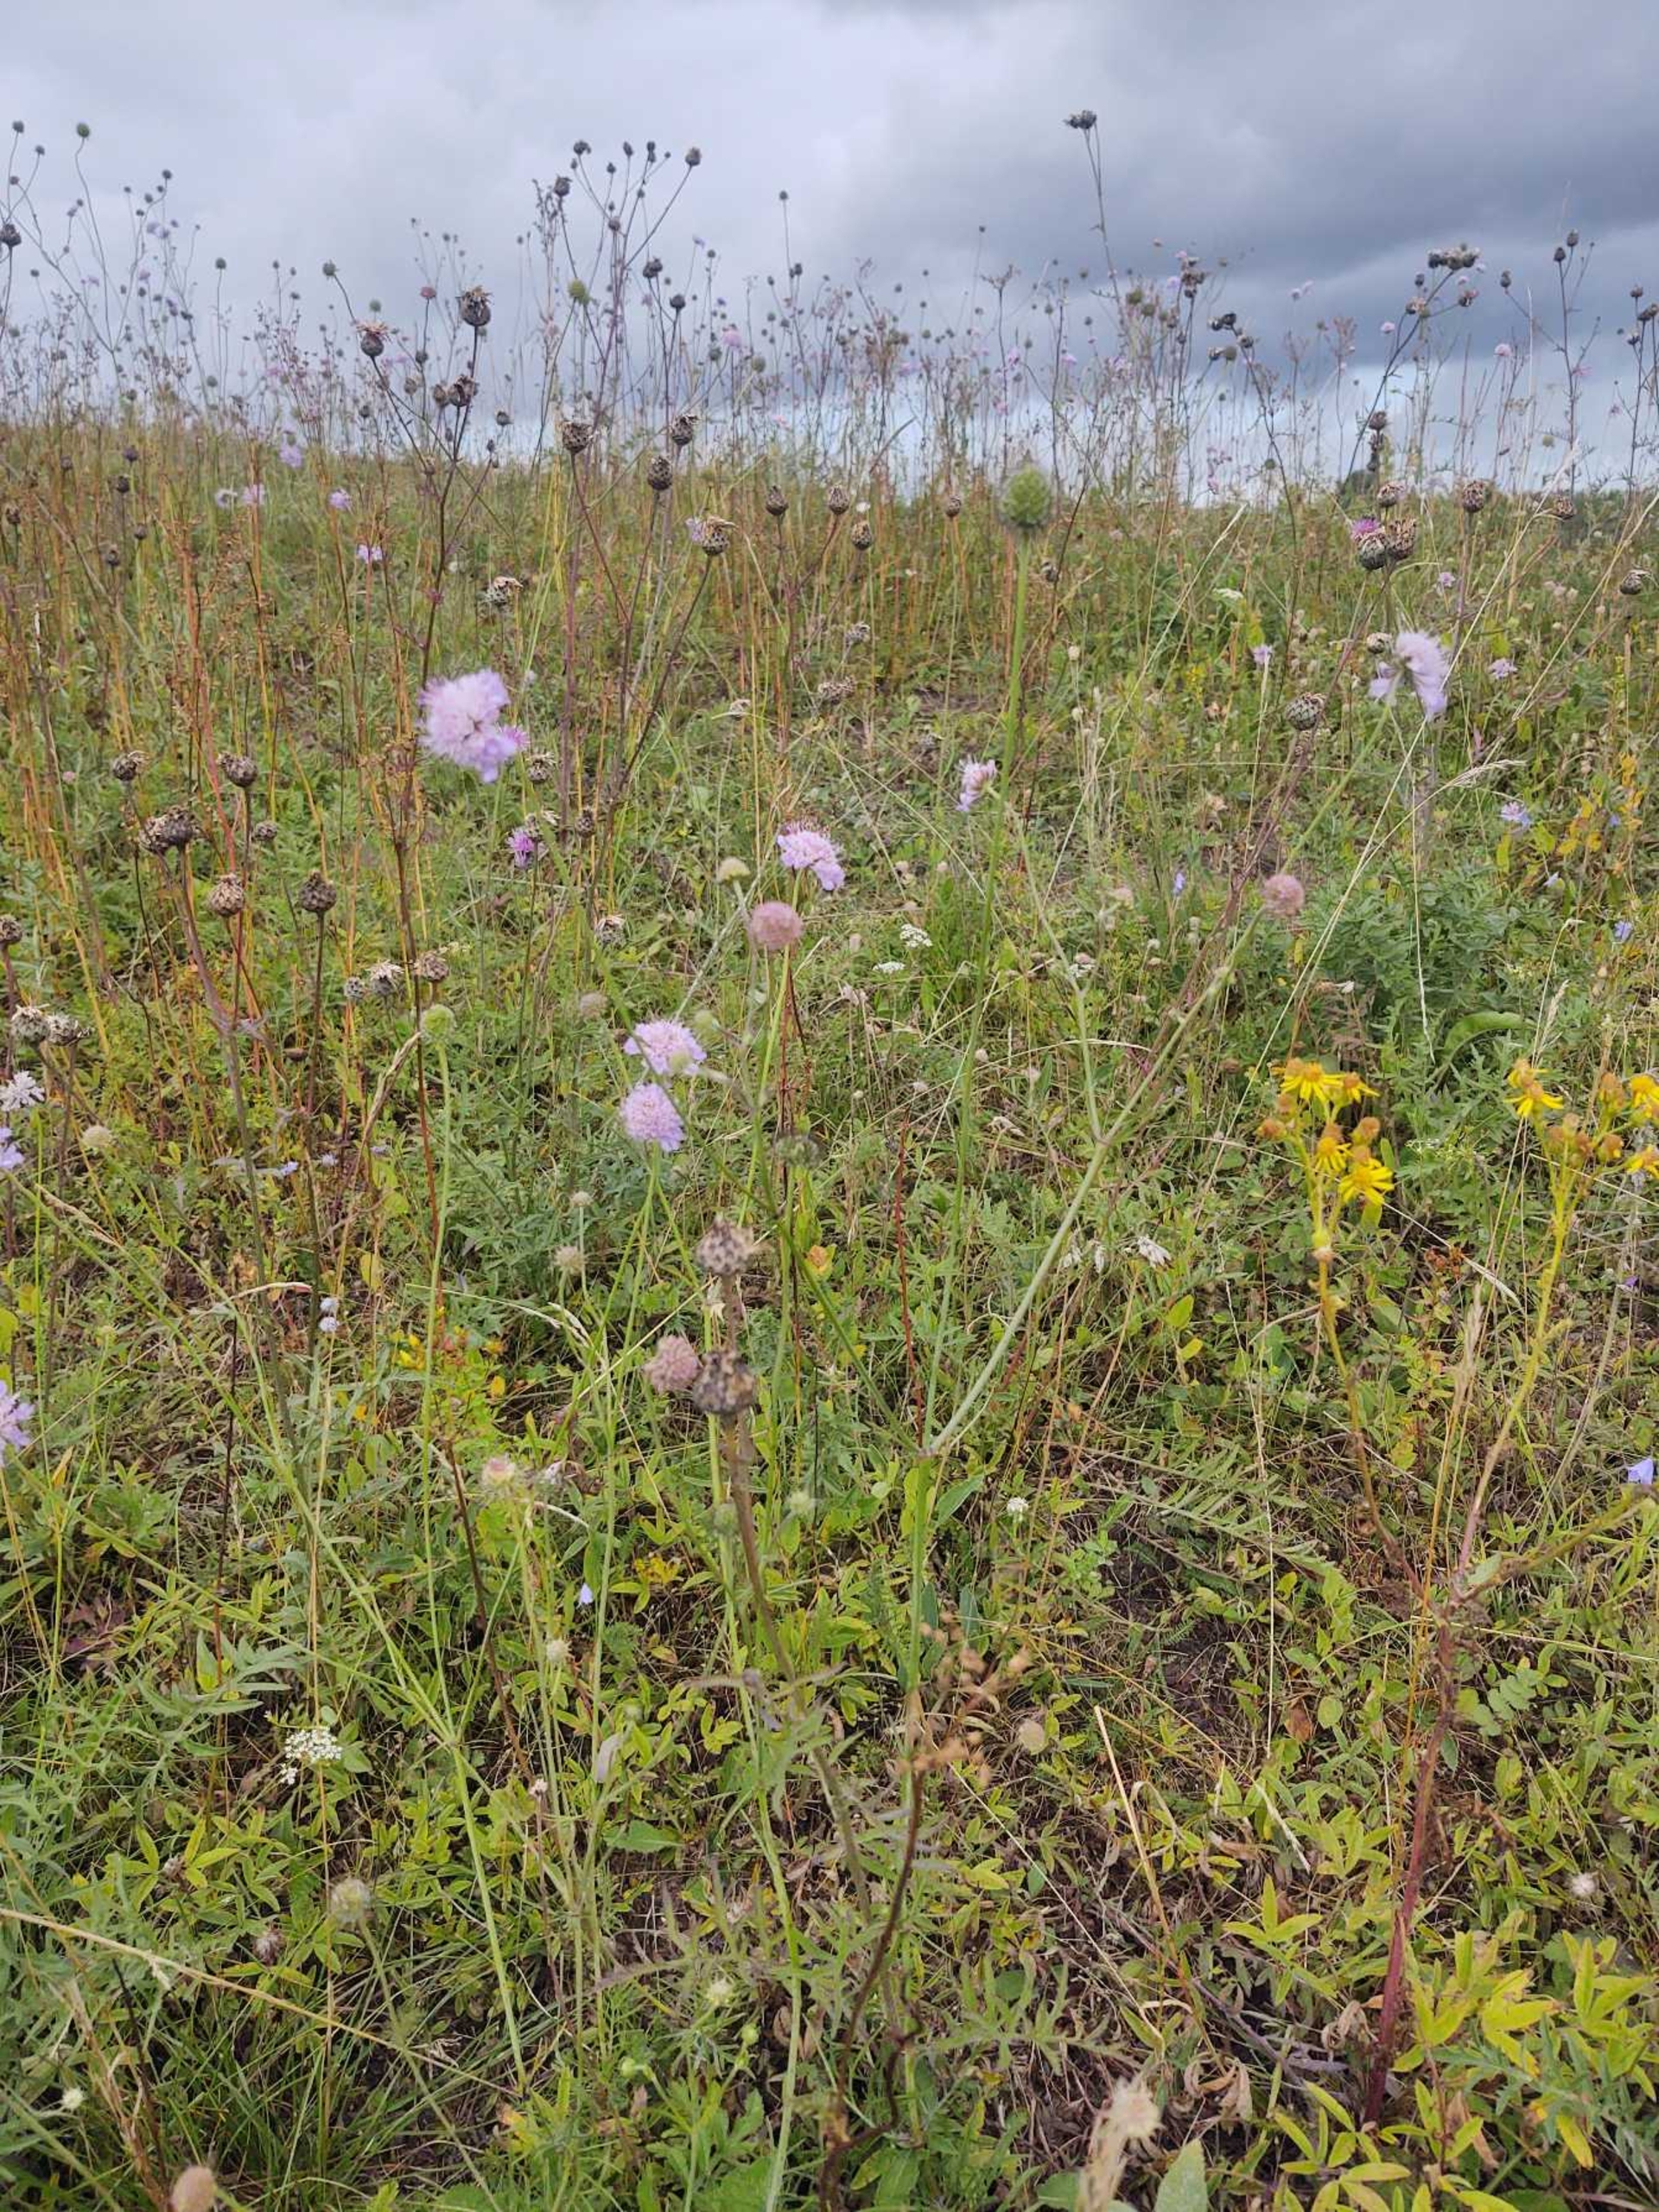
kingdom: Plantae
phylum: Tracheophyta
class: Magnoliopsida
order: Dipsacales
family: Caprifoliaceae
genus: Scabiosa
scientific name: Scabiosa columbaria
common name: Due-skabiose
